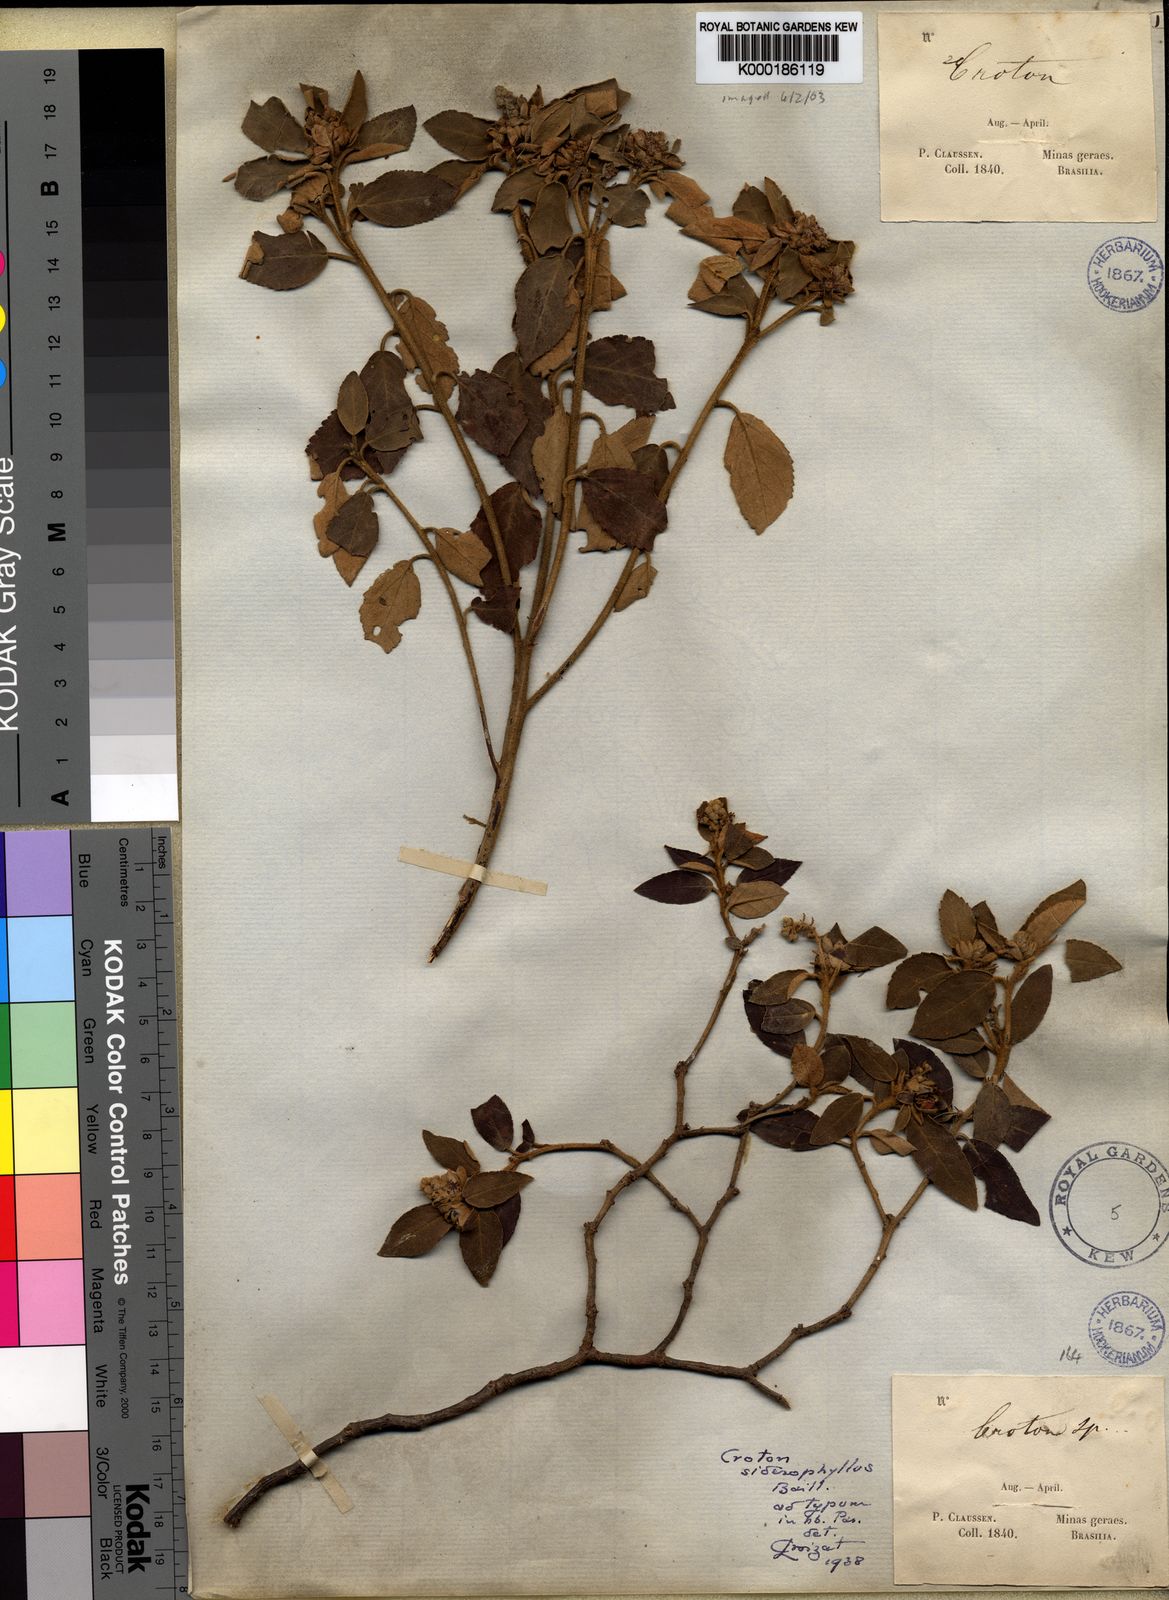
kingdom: Plantae
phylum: Tracheophyta
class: Magnoliopsida
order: Malpighiales
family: Euphorbiaceae
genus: Croton
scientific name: Croton siderophyllus
